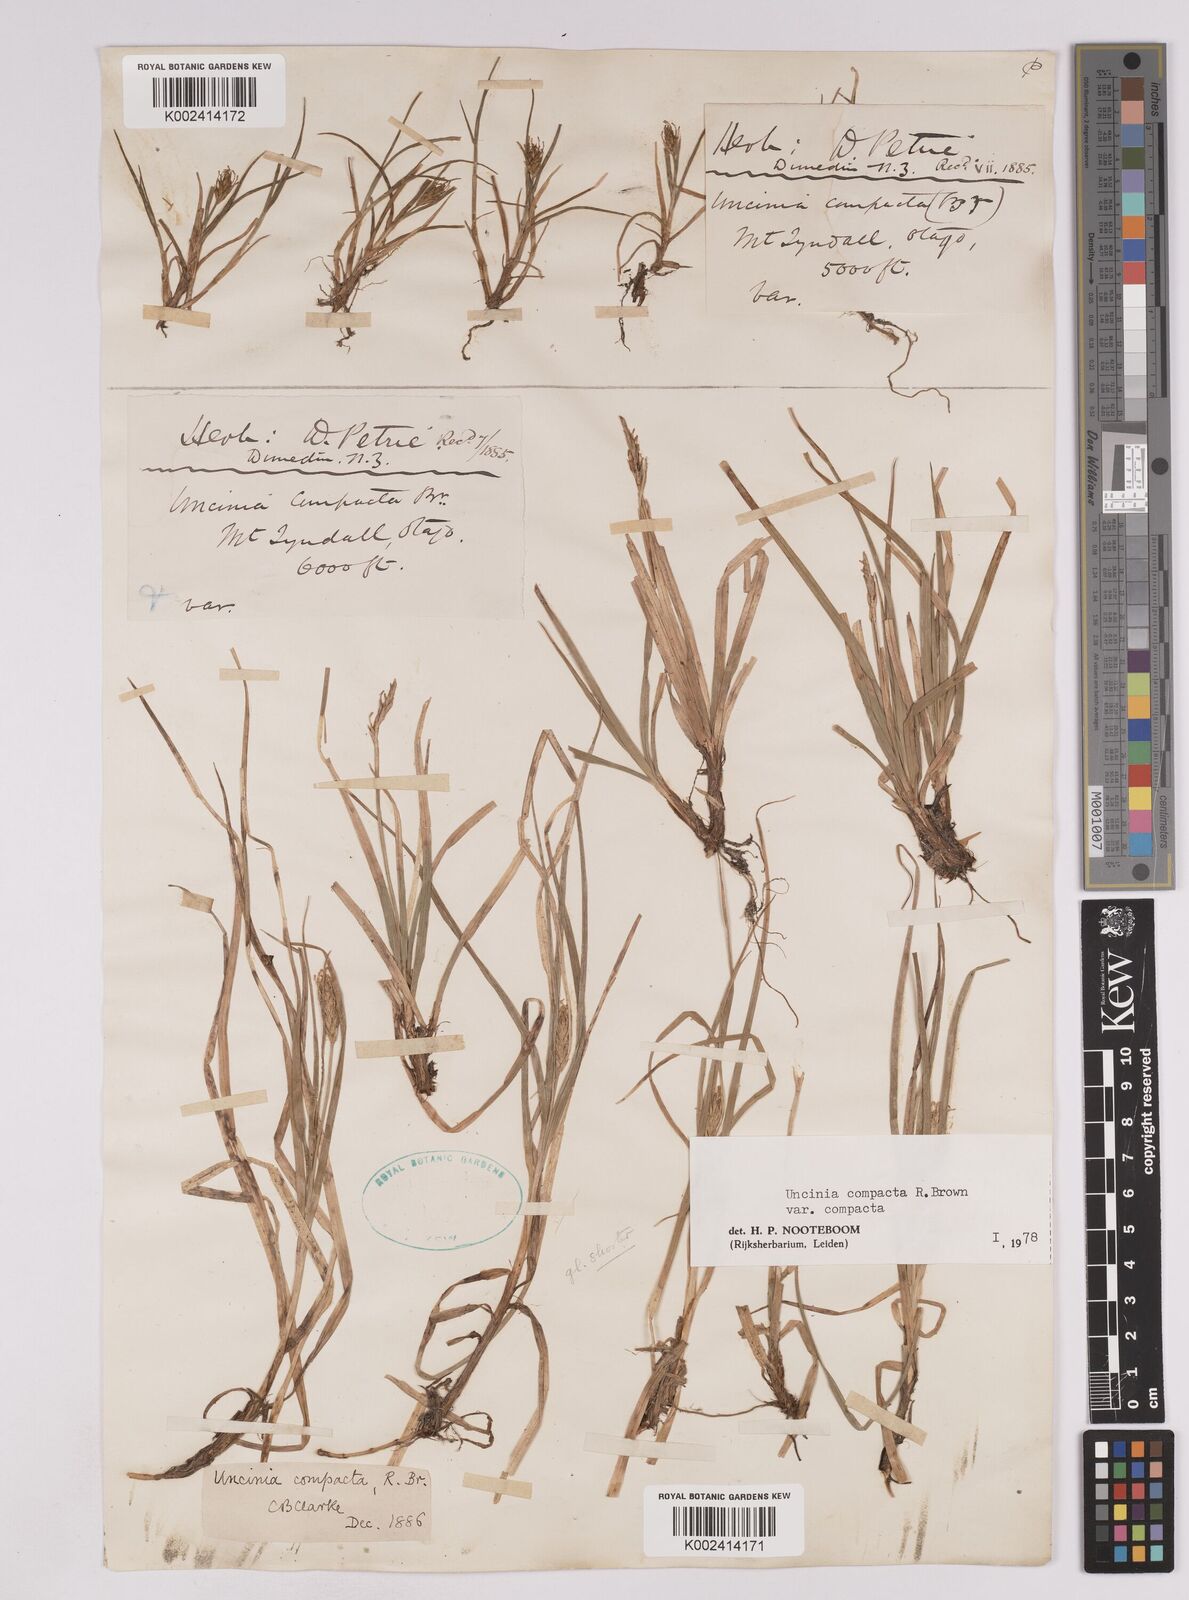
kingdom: Plantae
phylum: Tracheophyta
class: Liliopsida
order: Poales
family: Cyperaceae
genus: Carex
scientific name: Carex austrocompacta
